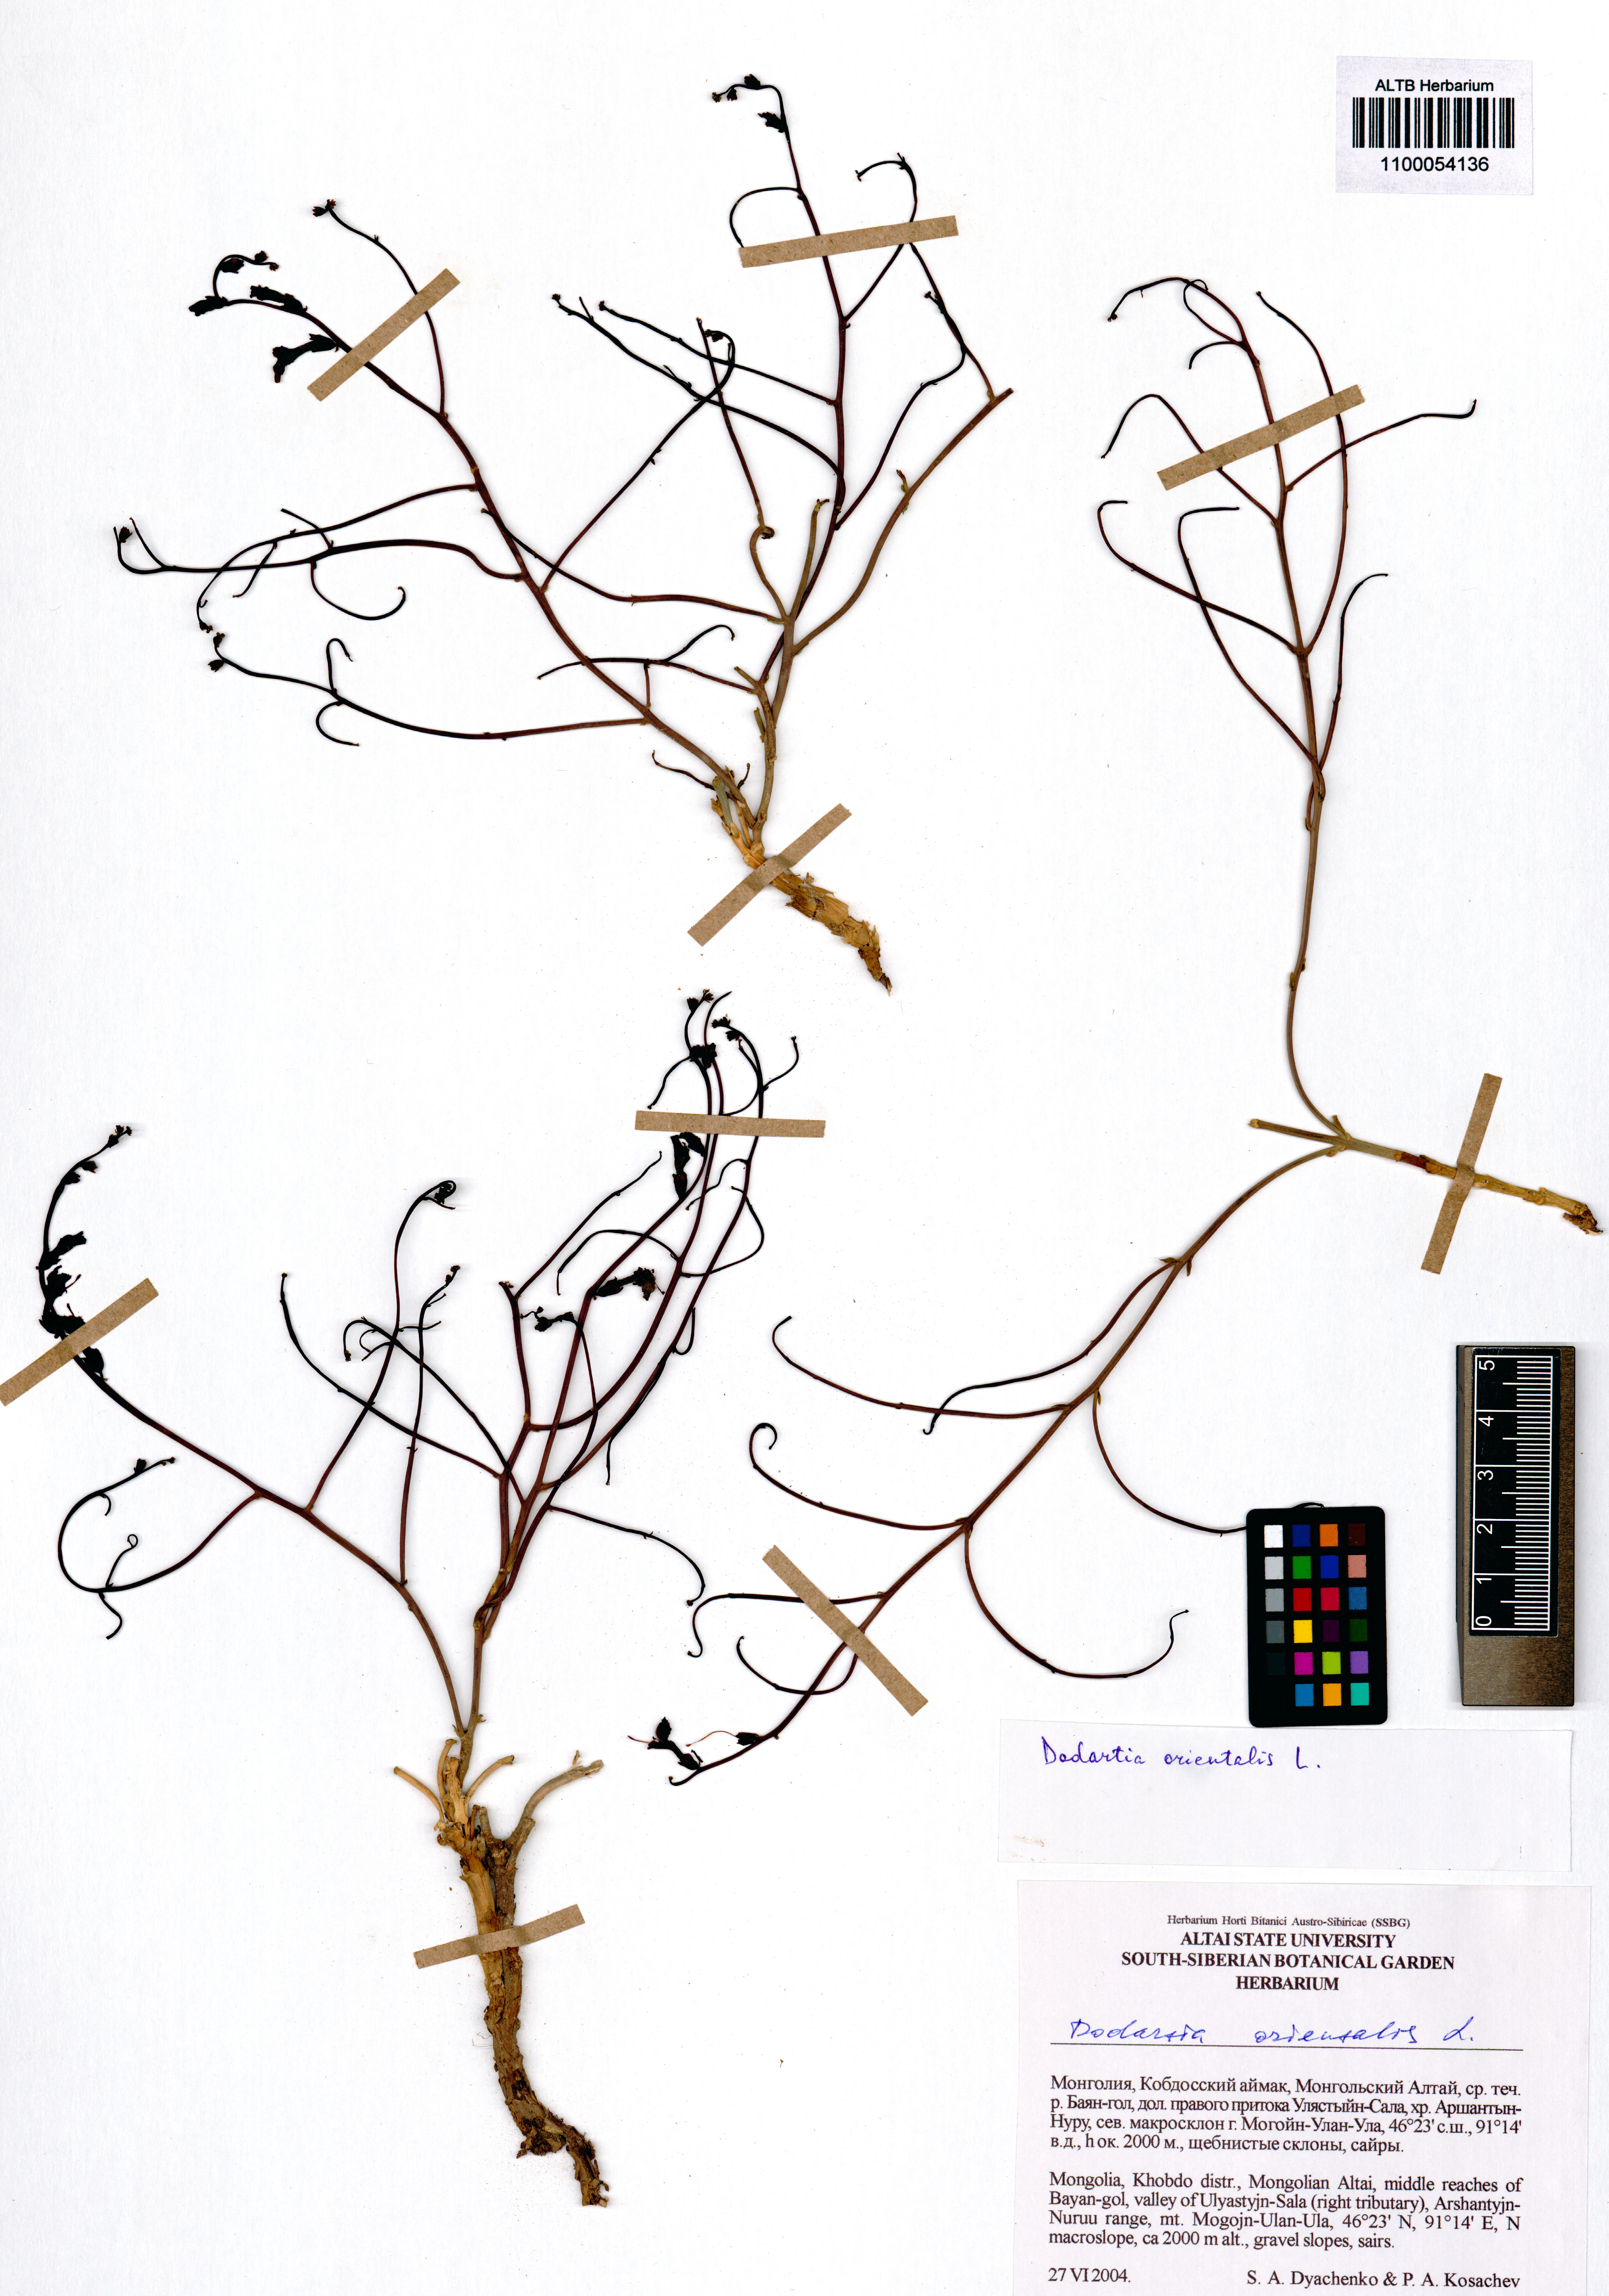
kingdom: Plantae
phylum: Tracheophyta
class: Magnoliopsida
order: Lamiales
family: Mazaceae
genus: Dodartia
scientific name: Dodartia orientalis
